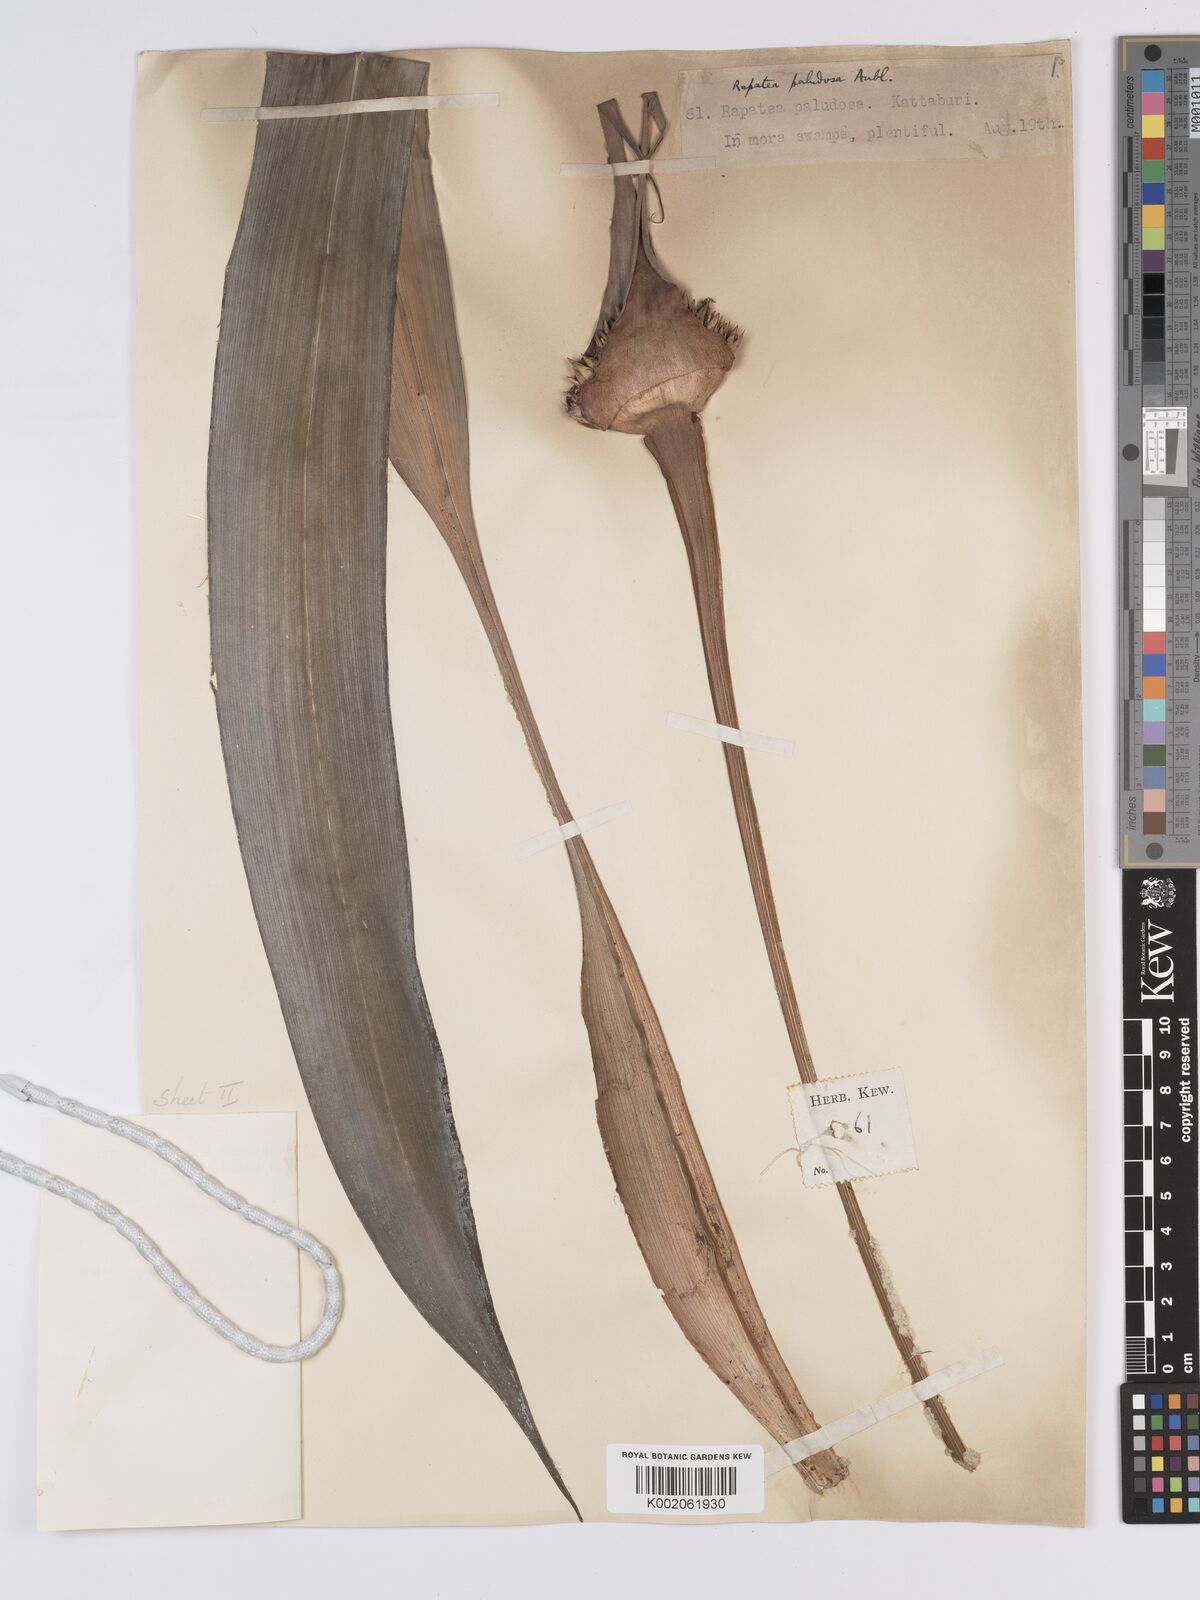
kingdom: Plantae
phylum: Tracheophyta
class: Liliopsida
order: Poales
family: Rapateaceae
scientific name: Rapateaceae
